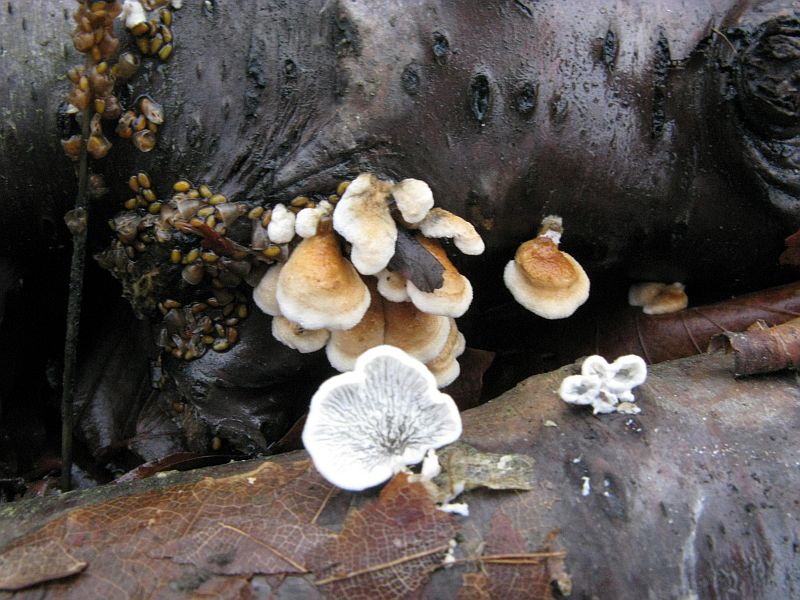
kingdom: Fungi
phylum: Basidiomycota
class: Agaricomycetes
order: Amylocorticiales
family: Amylocorticiaceae
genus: Plicaturopsis
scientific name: Plicaturopsis crispa
